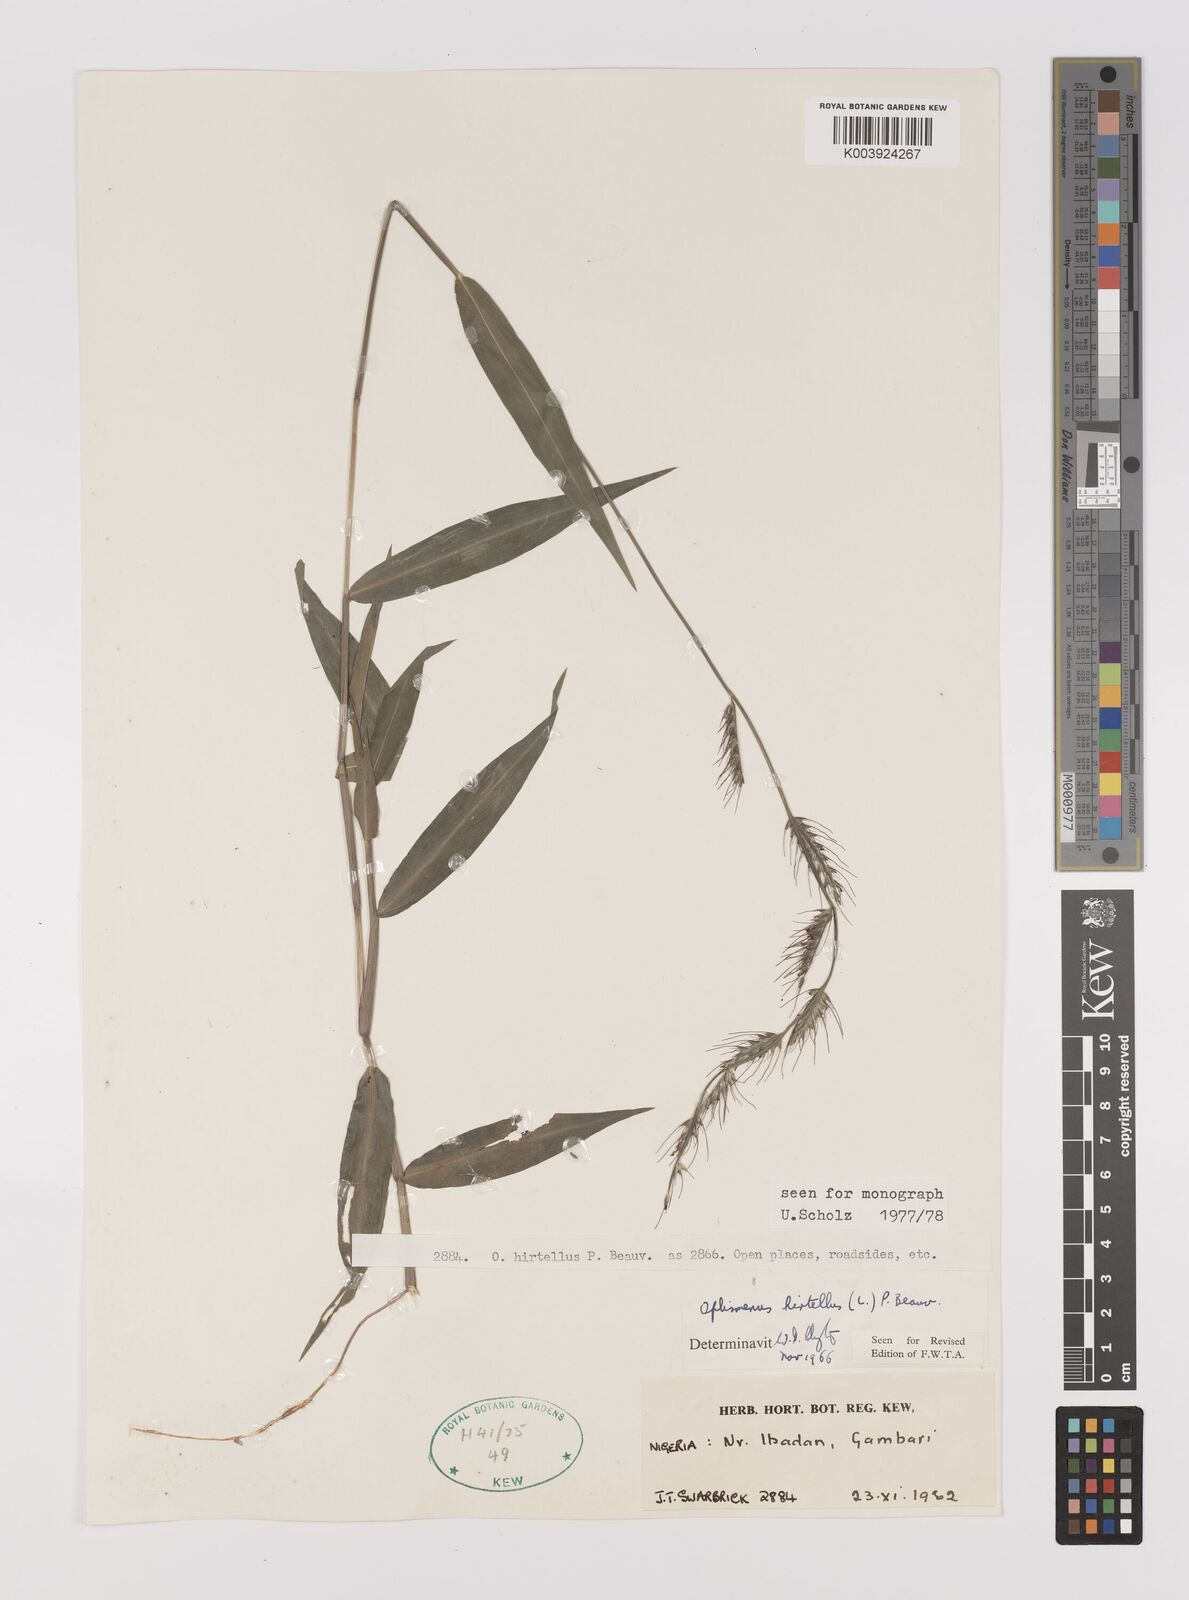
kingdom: Plantae
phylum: Tracheophyta
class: Liliopsida
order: Poales
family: Poaceae
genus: Oplismenus
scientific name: Oplismenus hirtellus
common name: Basketgrass
